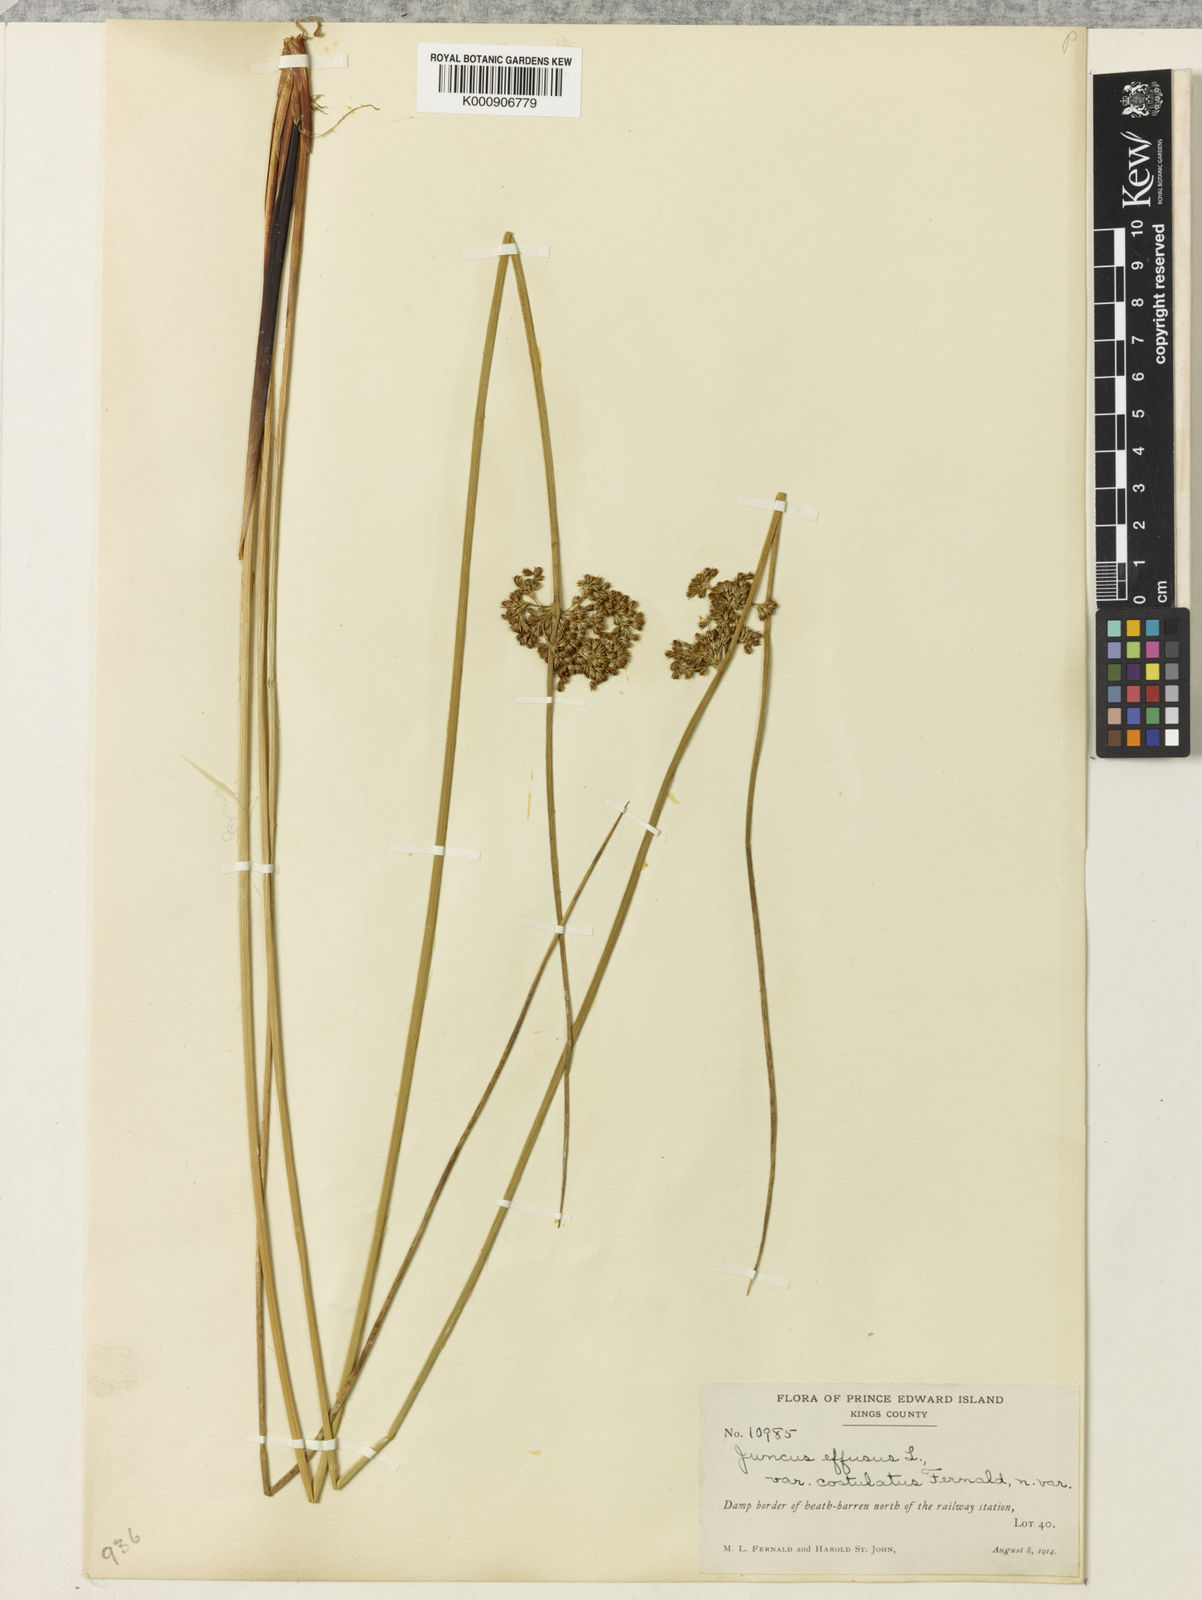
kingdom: Plantae
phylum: Tracheophyta
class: Liliopsida
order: Poales
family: Juncaceae
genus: Juncus
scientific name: Juncus effusus
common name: Soft rush
